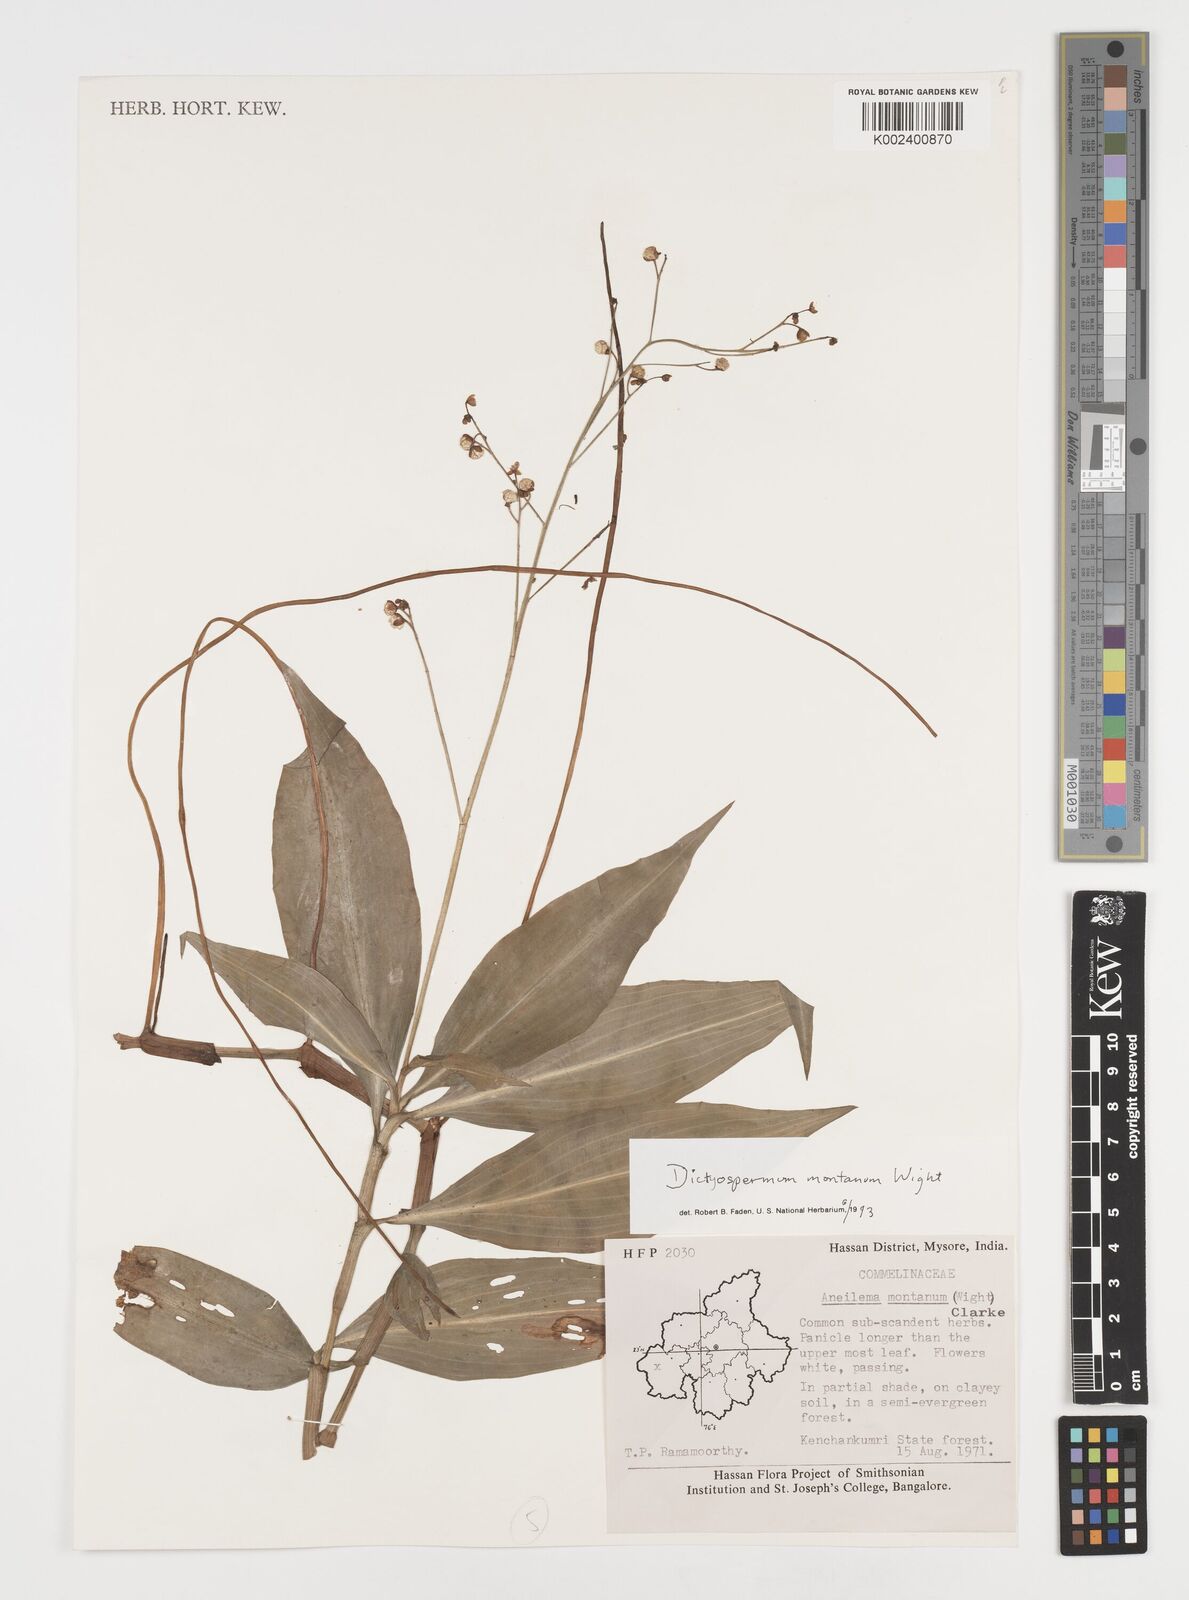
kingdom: Plantae
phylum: Tracheophyta
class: Liliopsida
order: Commelinales
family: Commelinaceae
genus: Dictyospermum
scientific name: Dictyospermum montanum
